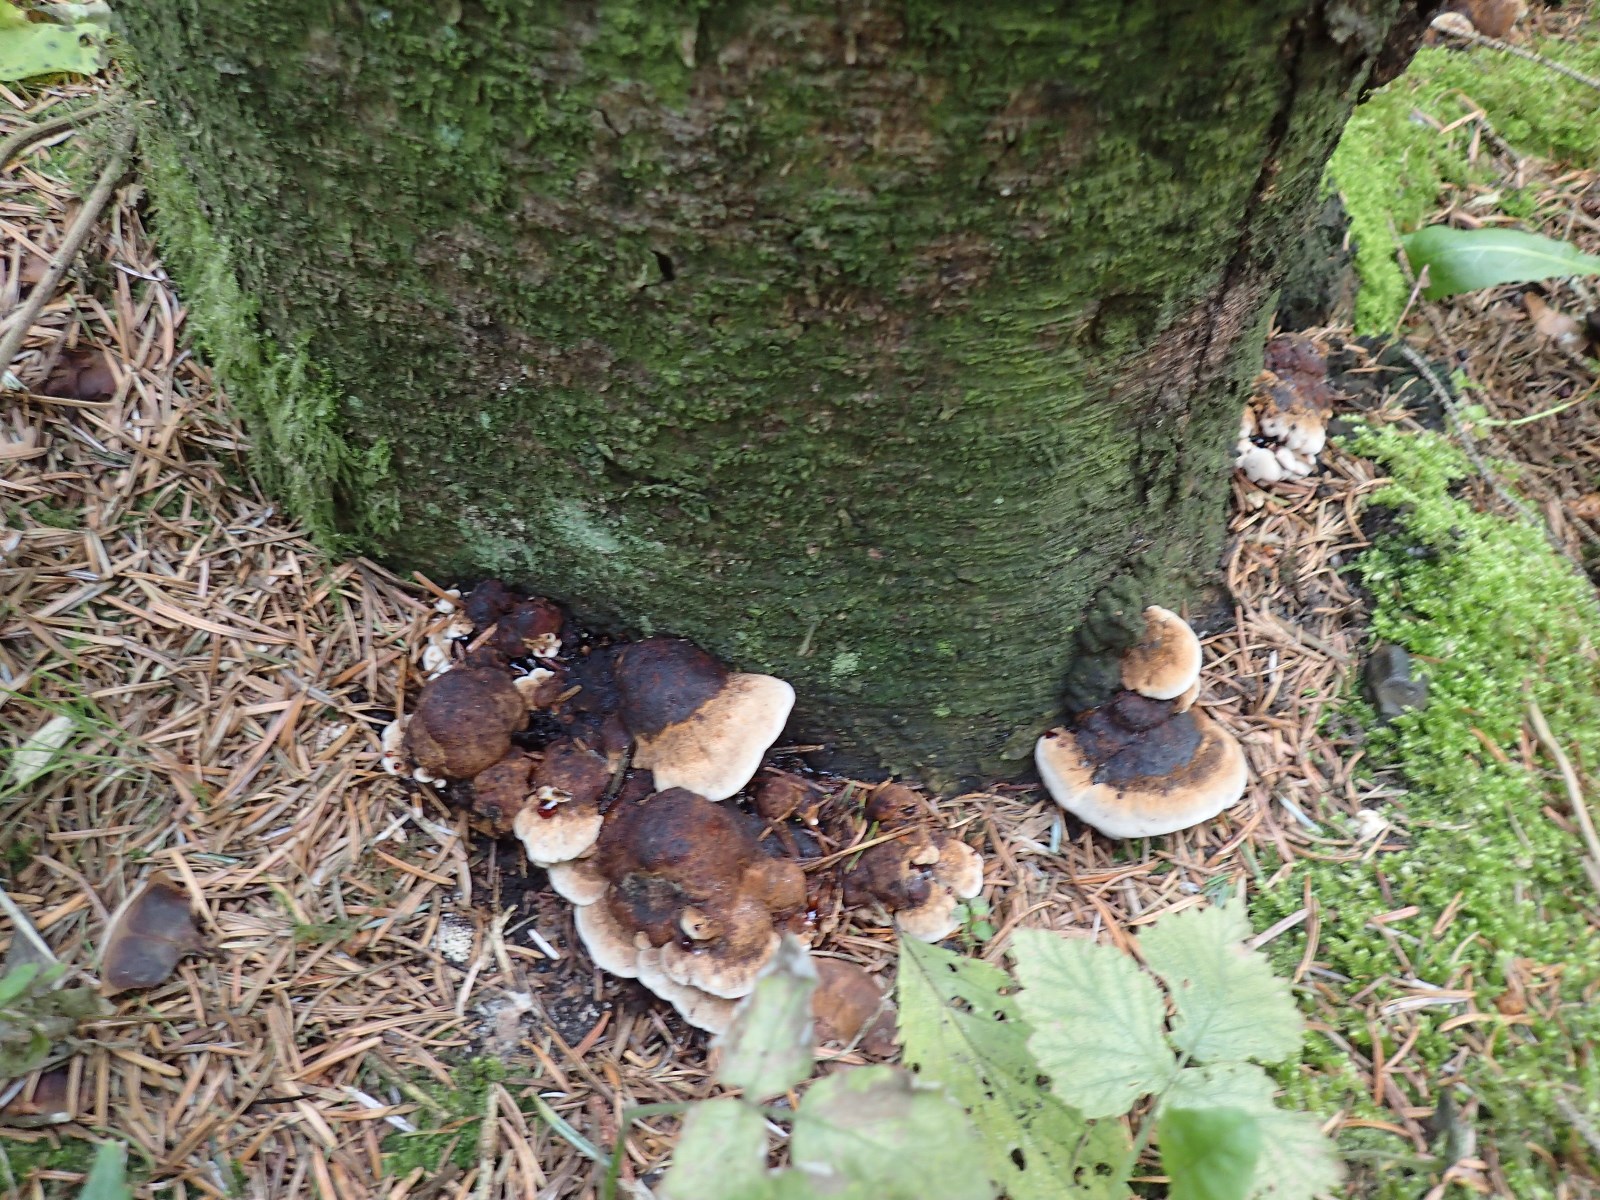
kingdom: Fungi
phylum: Basidiomycota
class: Agaricomycetes
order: Polyporales
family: Ischnodermataceae
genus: Ischnoderma
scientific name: Ischnoderma benzoinum
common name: gran-tjæreporesvamp
